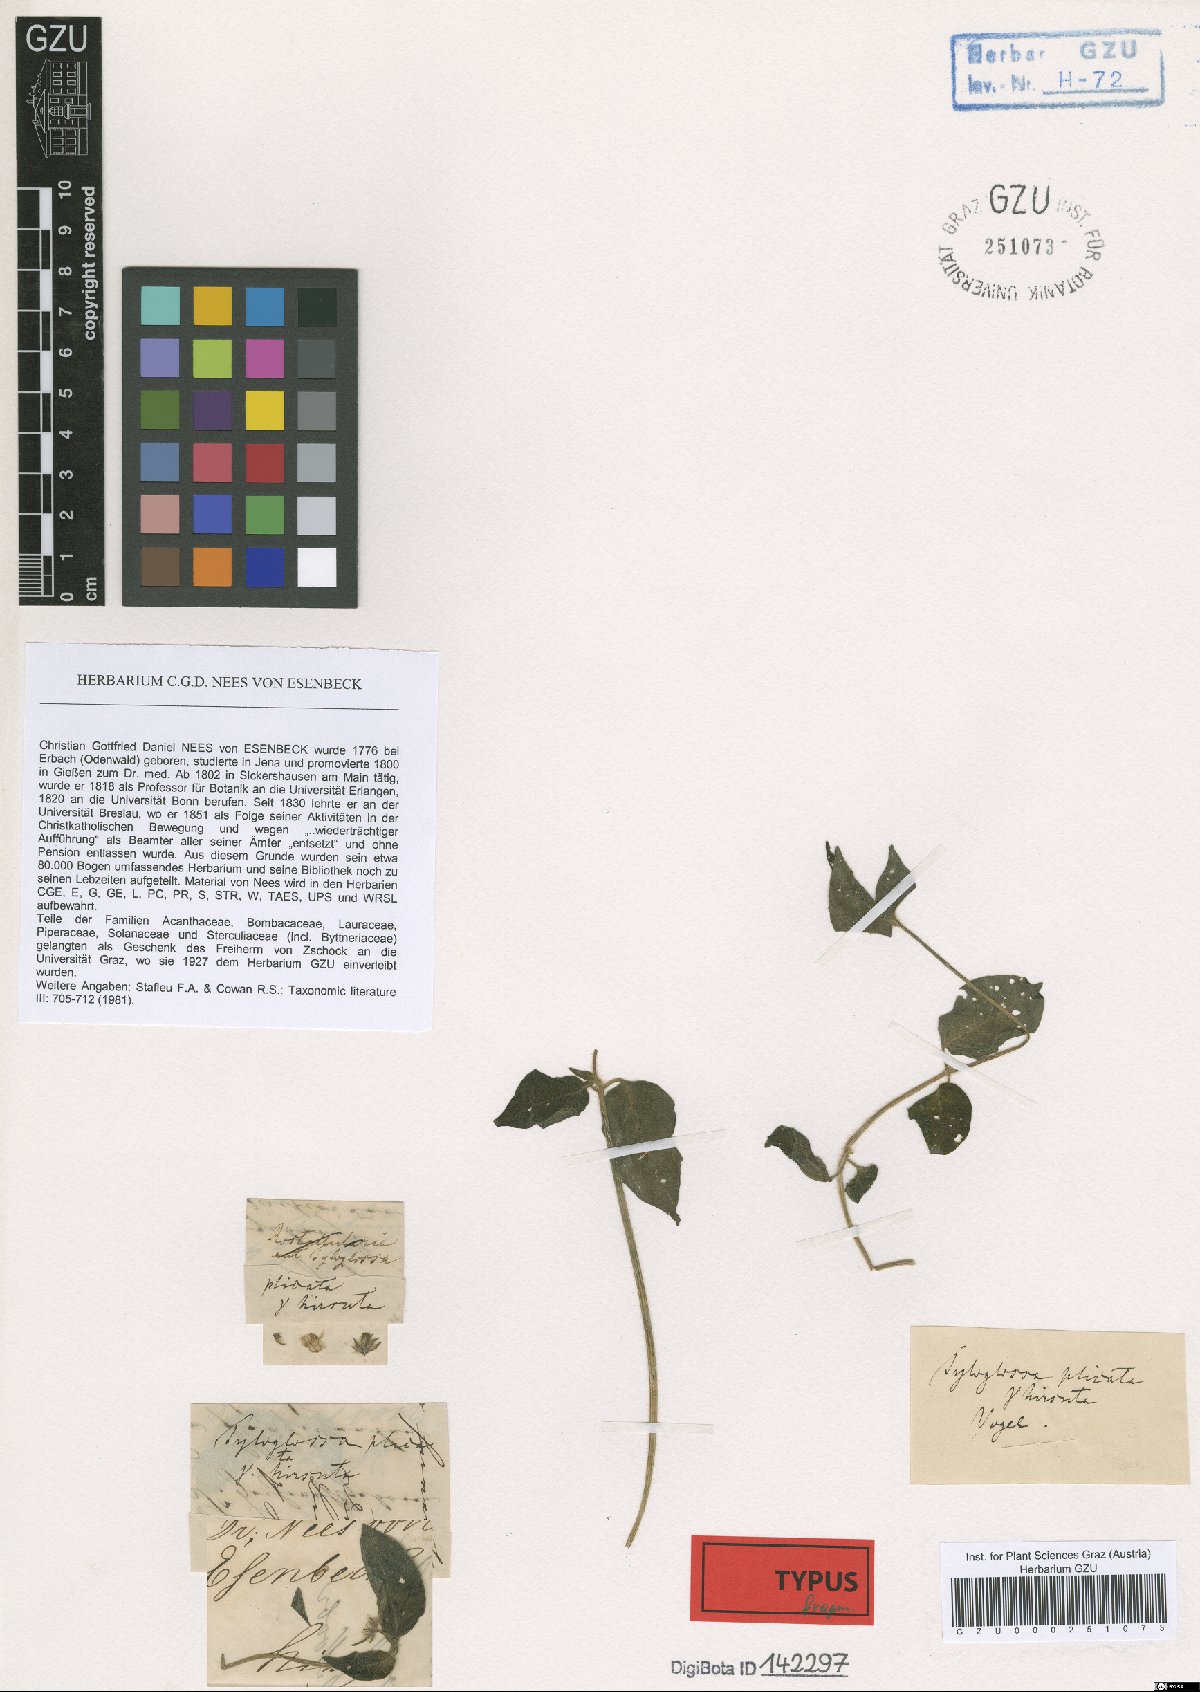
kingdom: Plantae
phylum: Tracheophyta
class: Magnoliopsida
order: Lamiales
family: Acanthaceae
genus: Justicia
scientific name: Justicia flava
